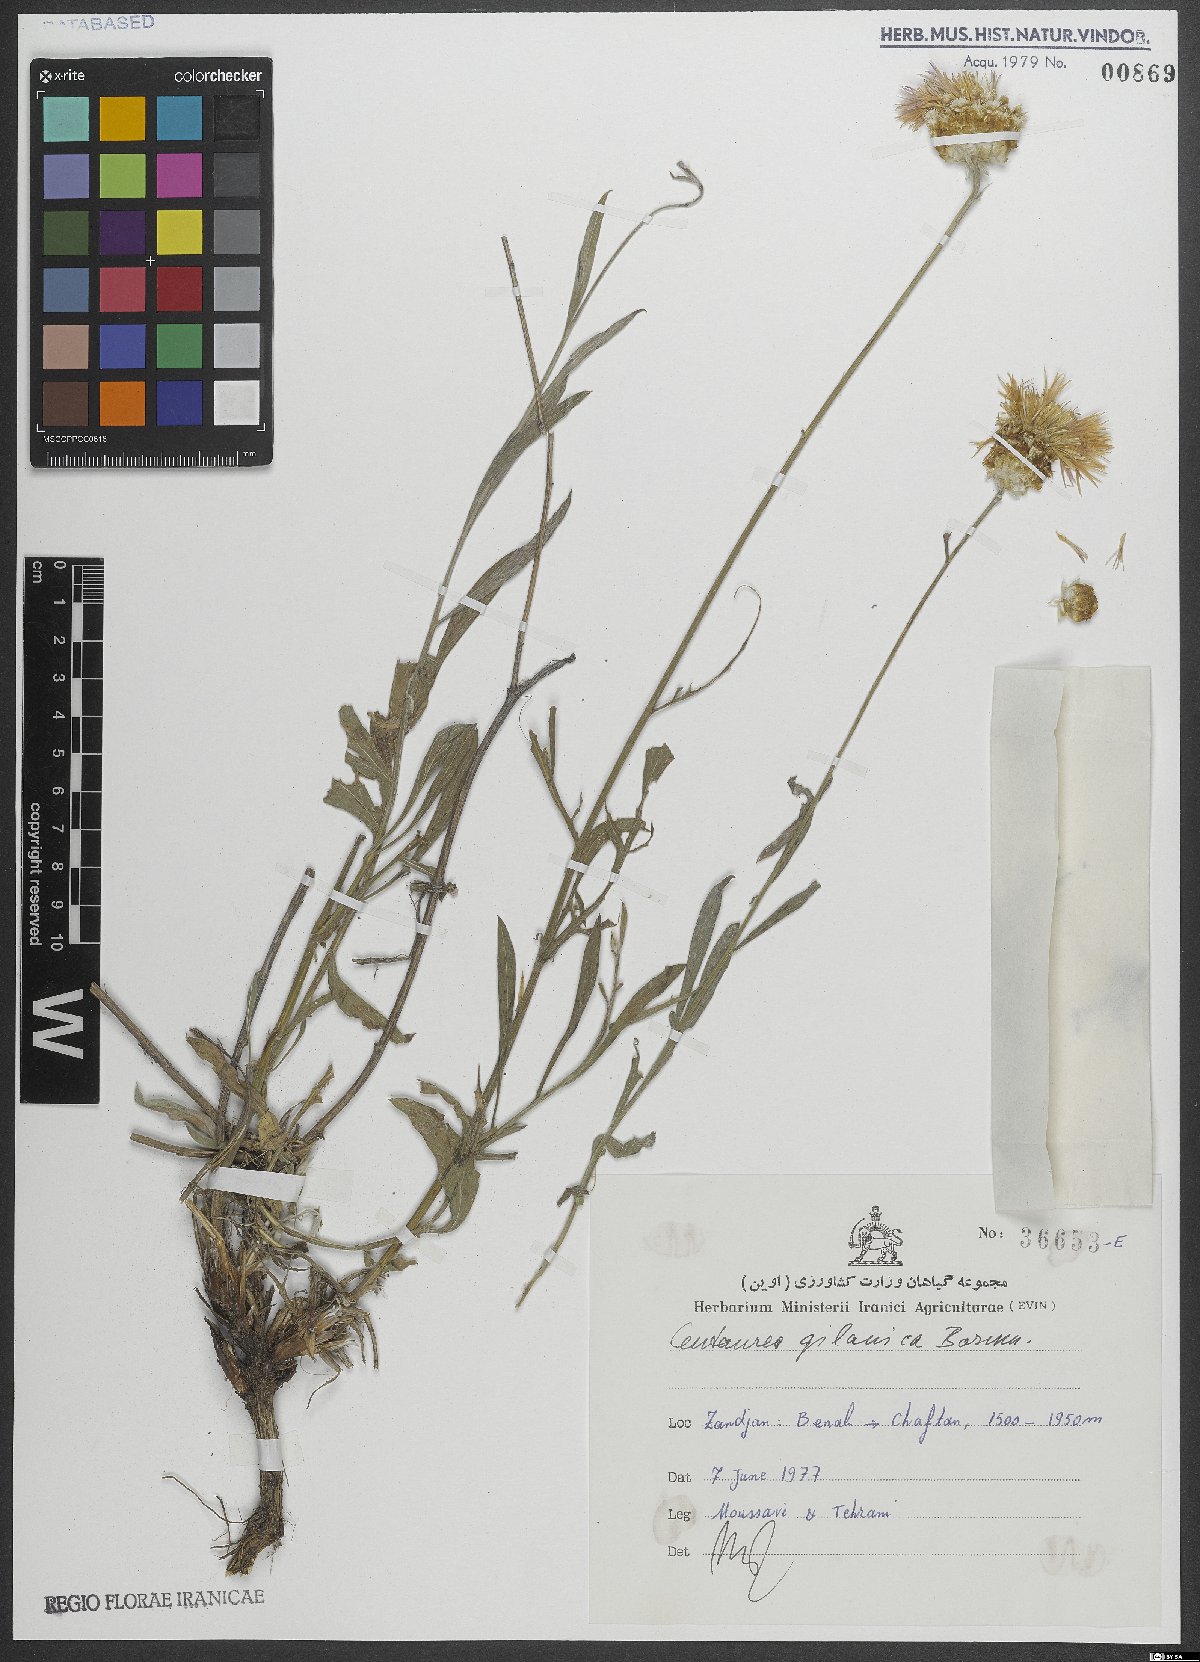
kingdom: Plantae
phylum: Tracheophyta
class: Magnoliopsida
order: Asterales
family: Asteraceae
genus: Psephellus
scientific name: Psephellus gilanicus
